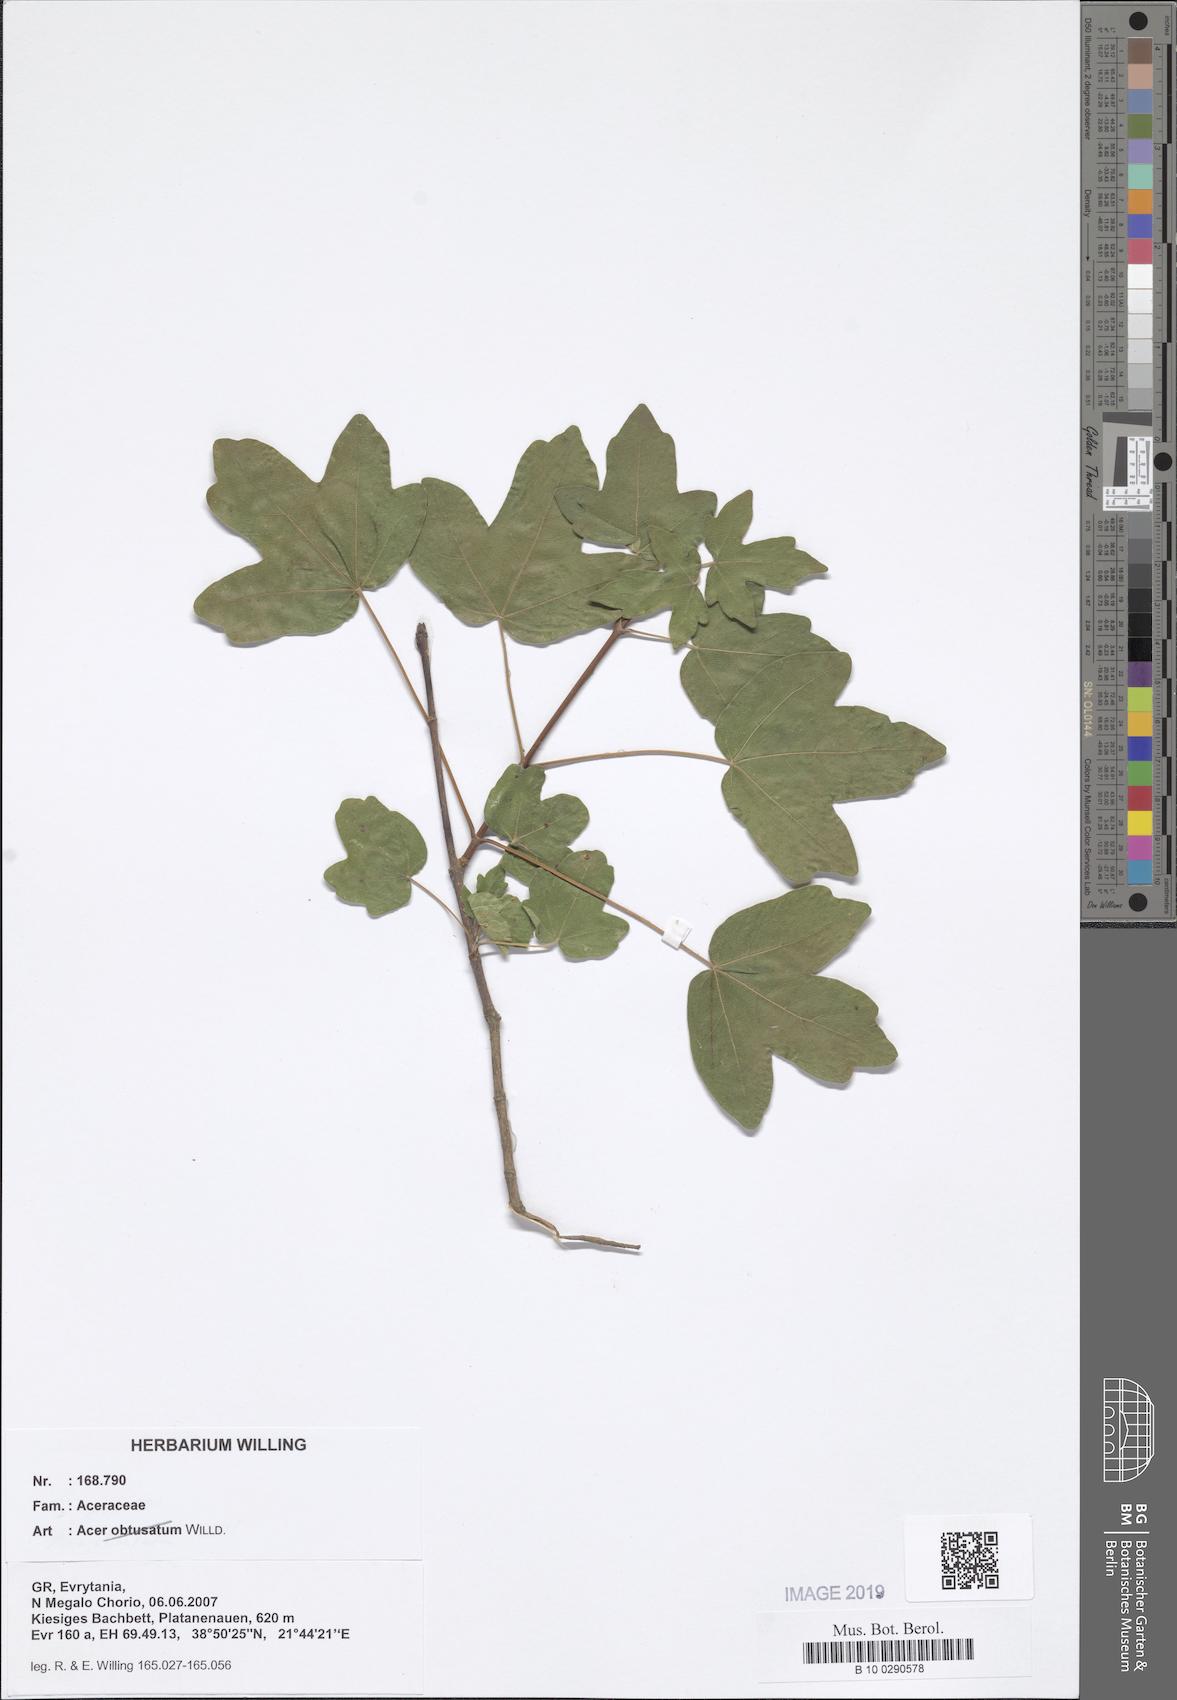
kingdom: Plantae
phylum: Tracheophyta
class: Magnoliopsida
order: Sapindales
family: Sapindaceae
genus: Acer
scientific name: Acer obtusatum
